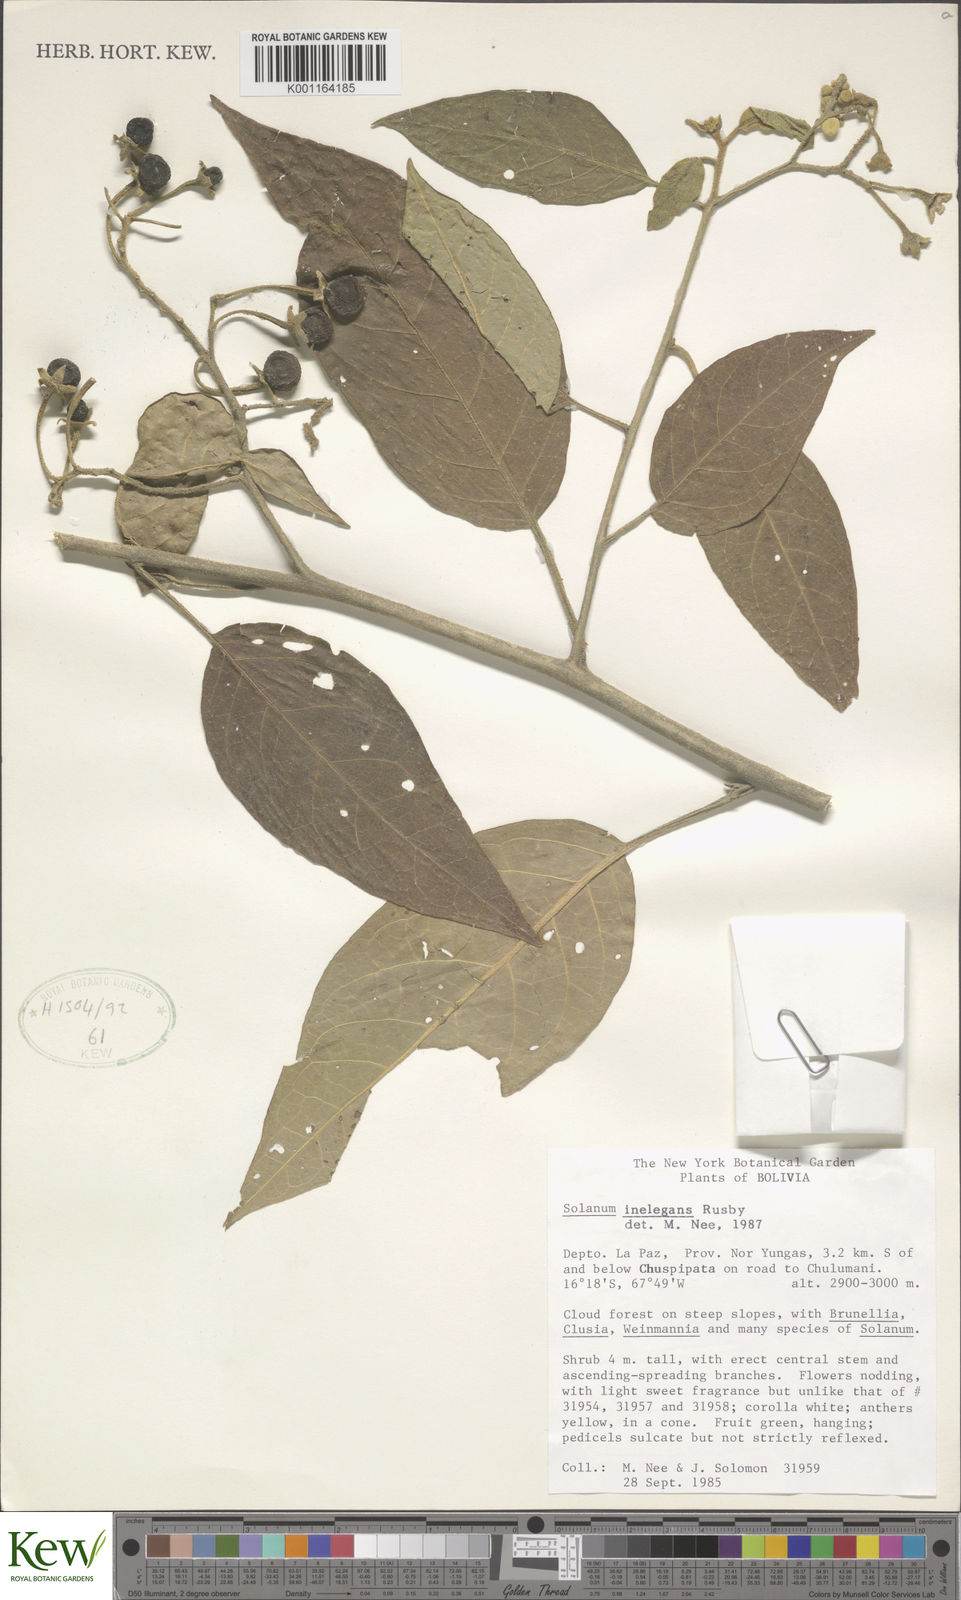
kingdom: Plantae
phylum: Tracheophyta
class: Magnoliopsida
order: Solanales
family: Solanaceae
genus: Solanum
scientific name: Solanum inelegans
